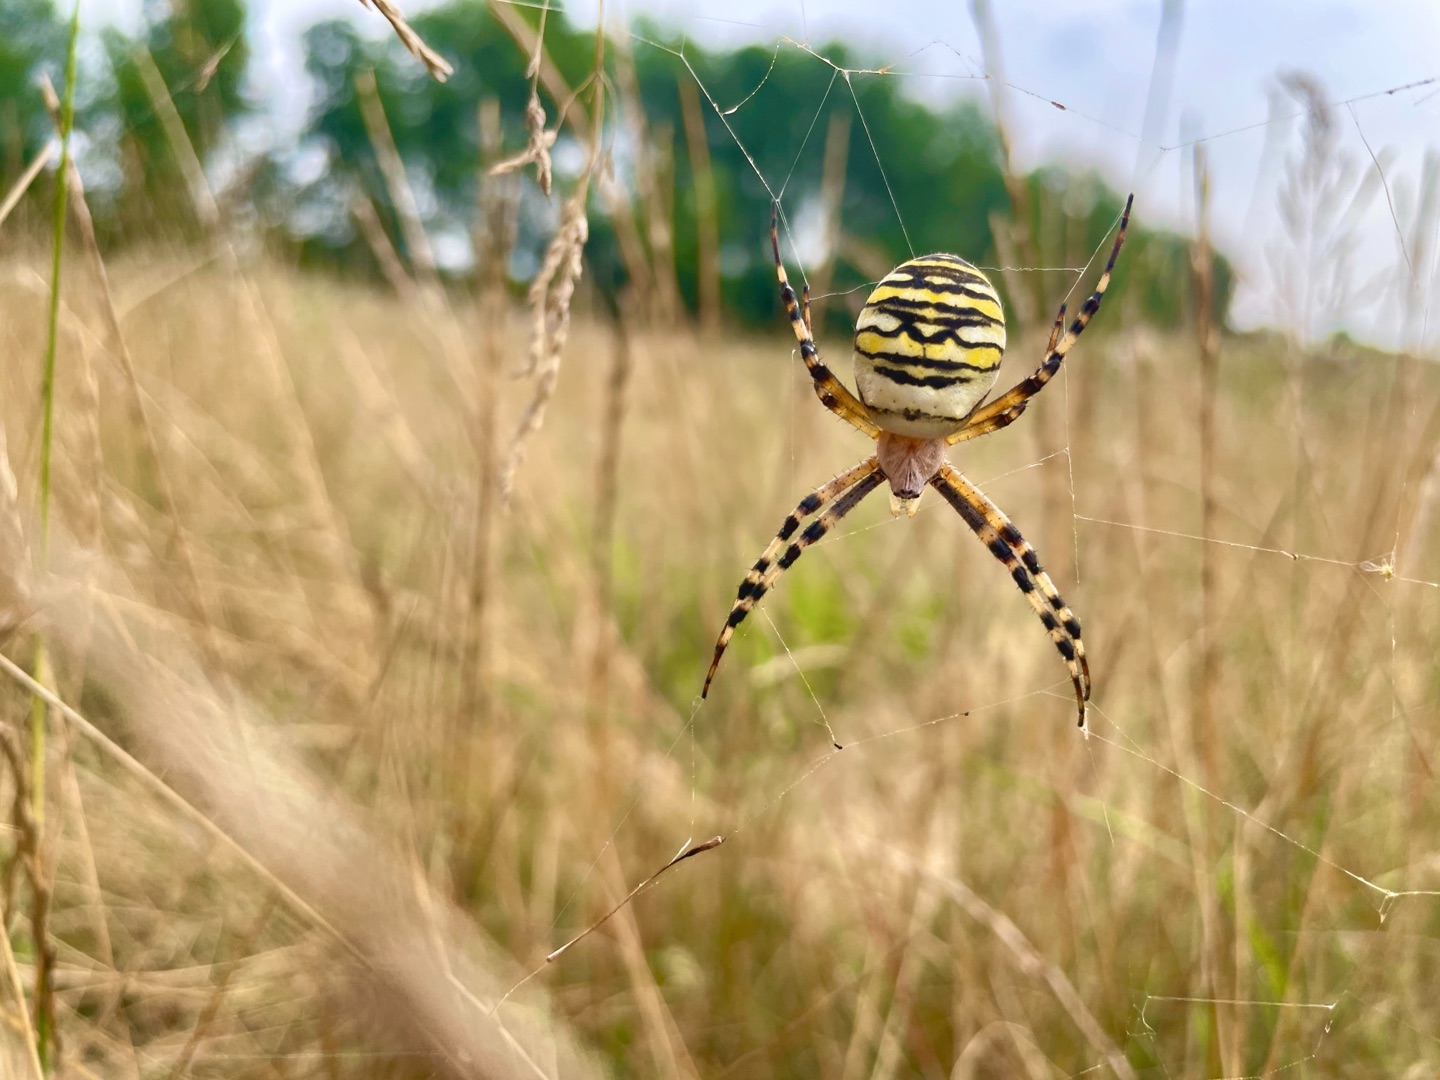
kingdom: Animalia
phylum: Arthropoda
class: Arachnida
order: Araneae
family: Araneidae
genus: Argiope
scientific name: Argiope bruennichi
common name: Hvepseedderkop
